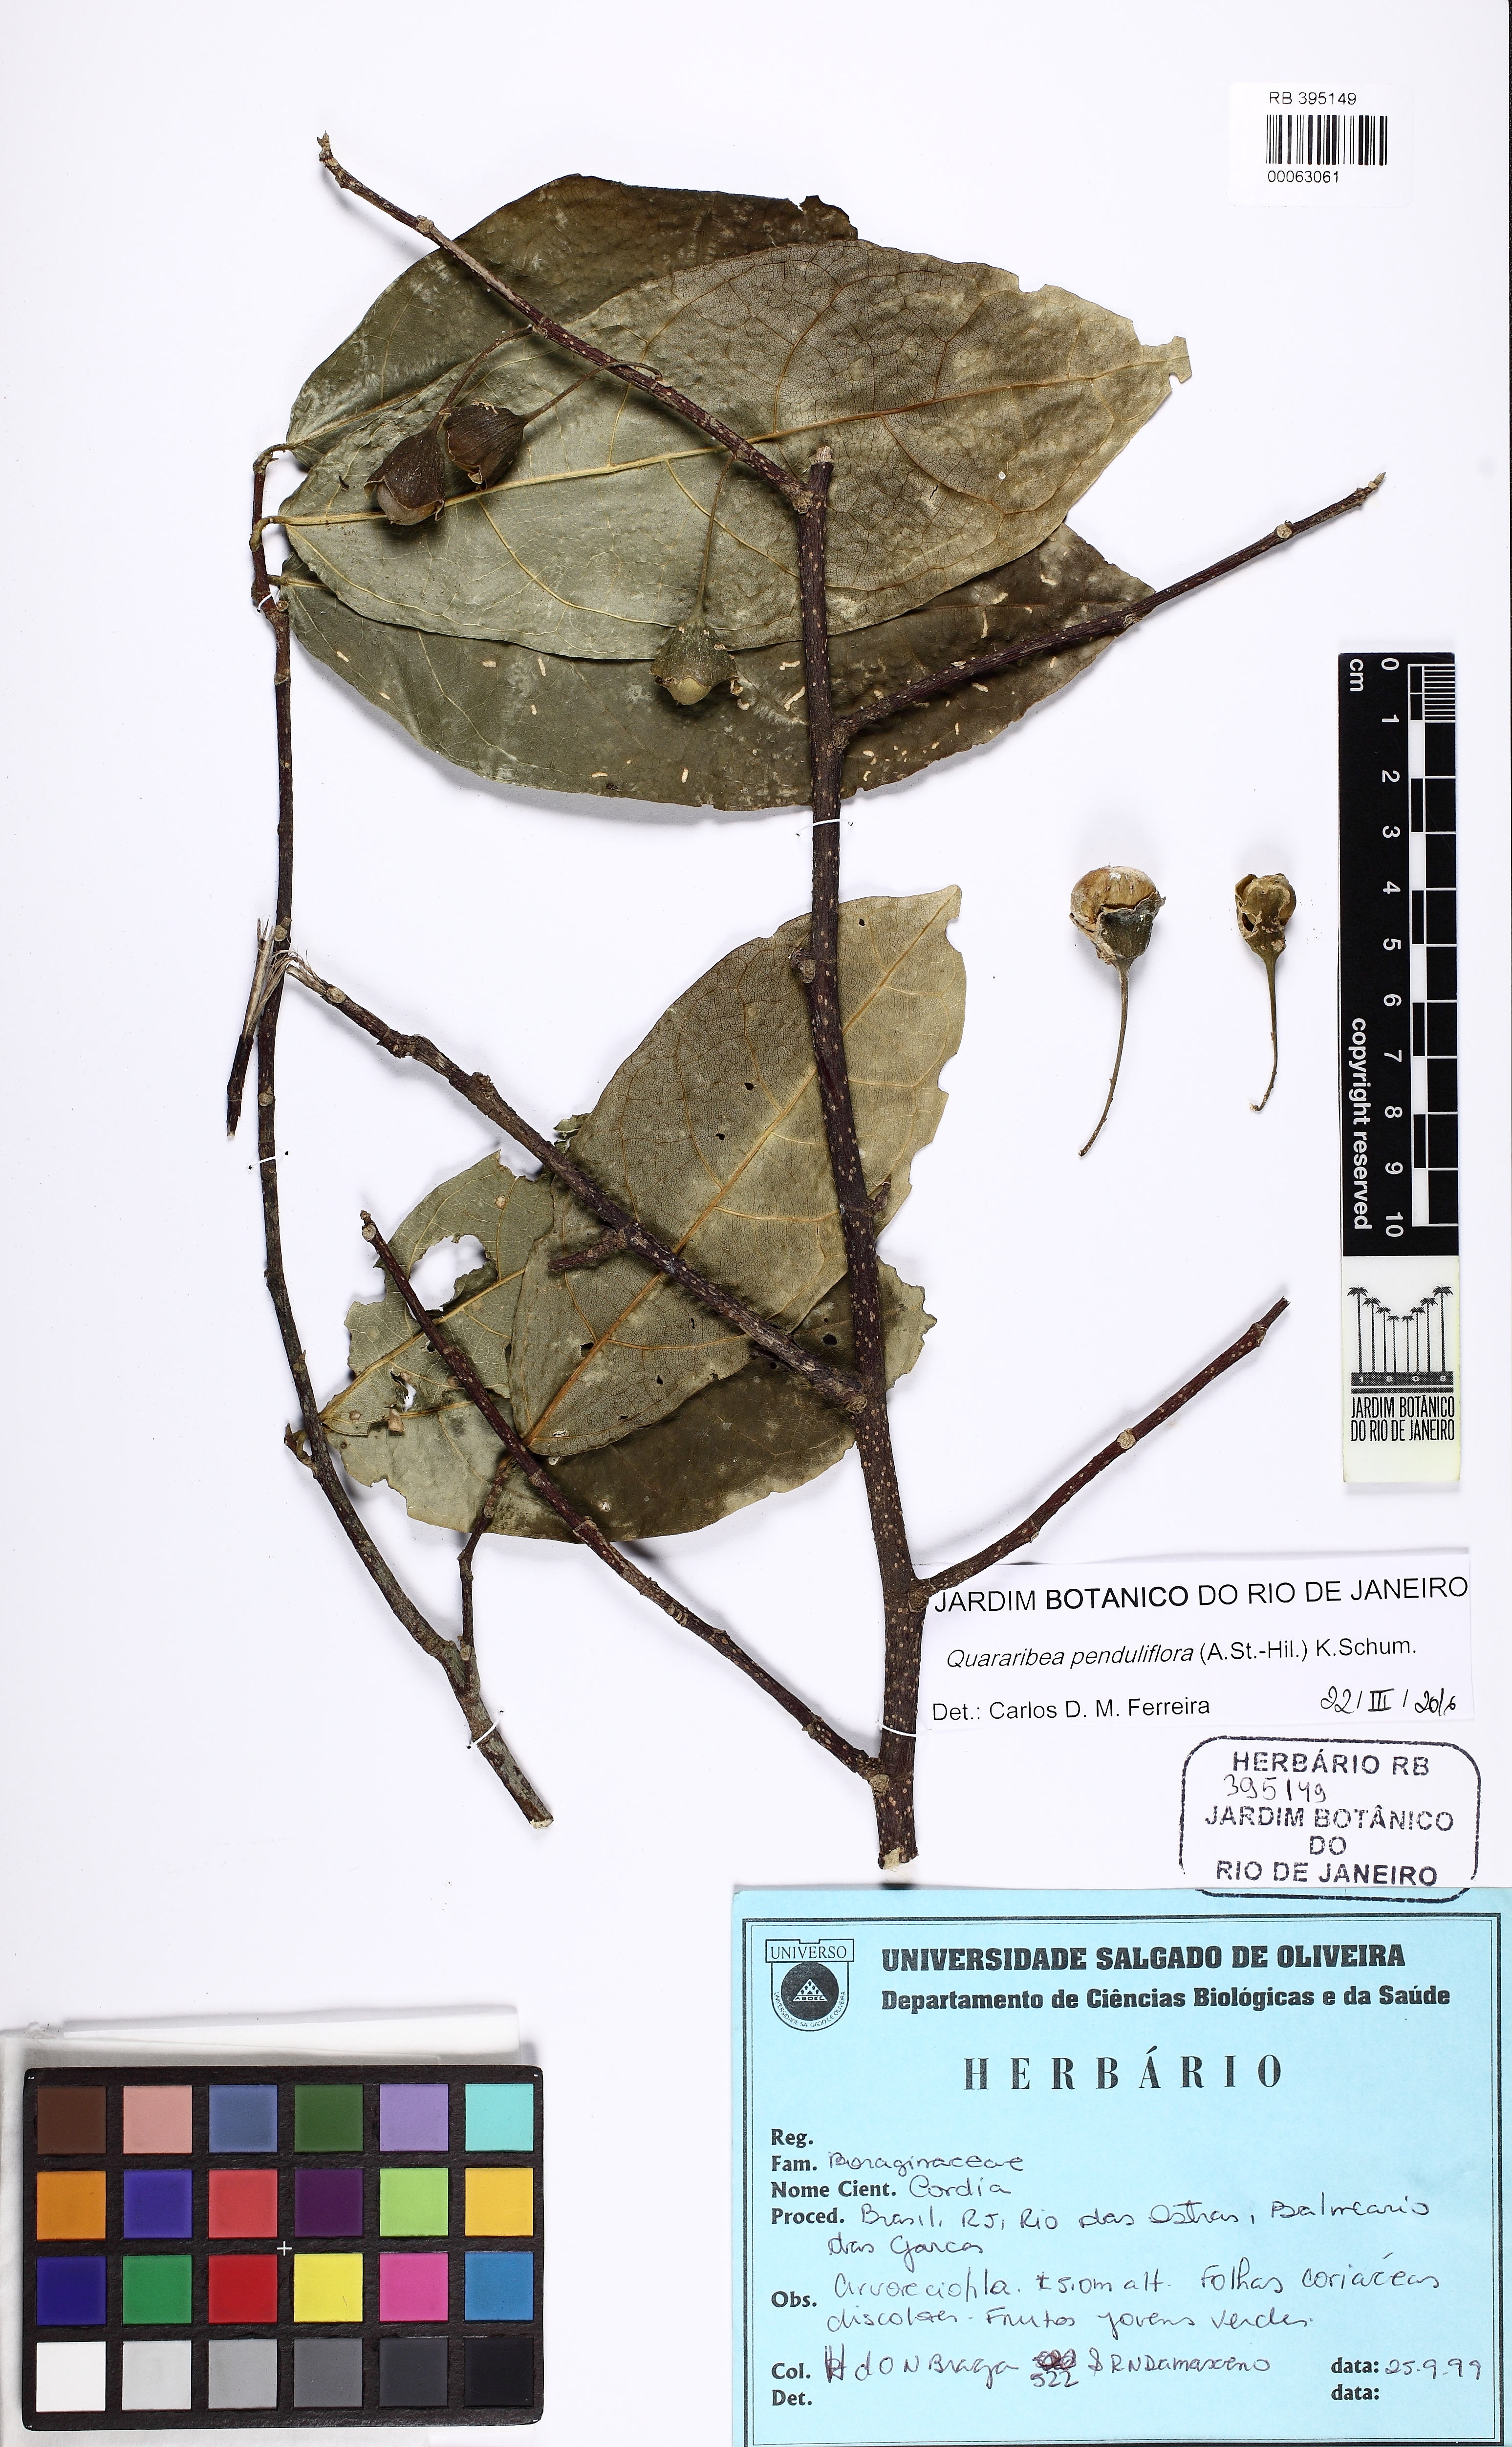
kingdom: Plantae
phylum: Tracheophyta
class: Magnoliopsida
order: Malvales
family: Malvaceae
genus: Quararibea
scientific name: Quararibea penduliflora
